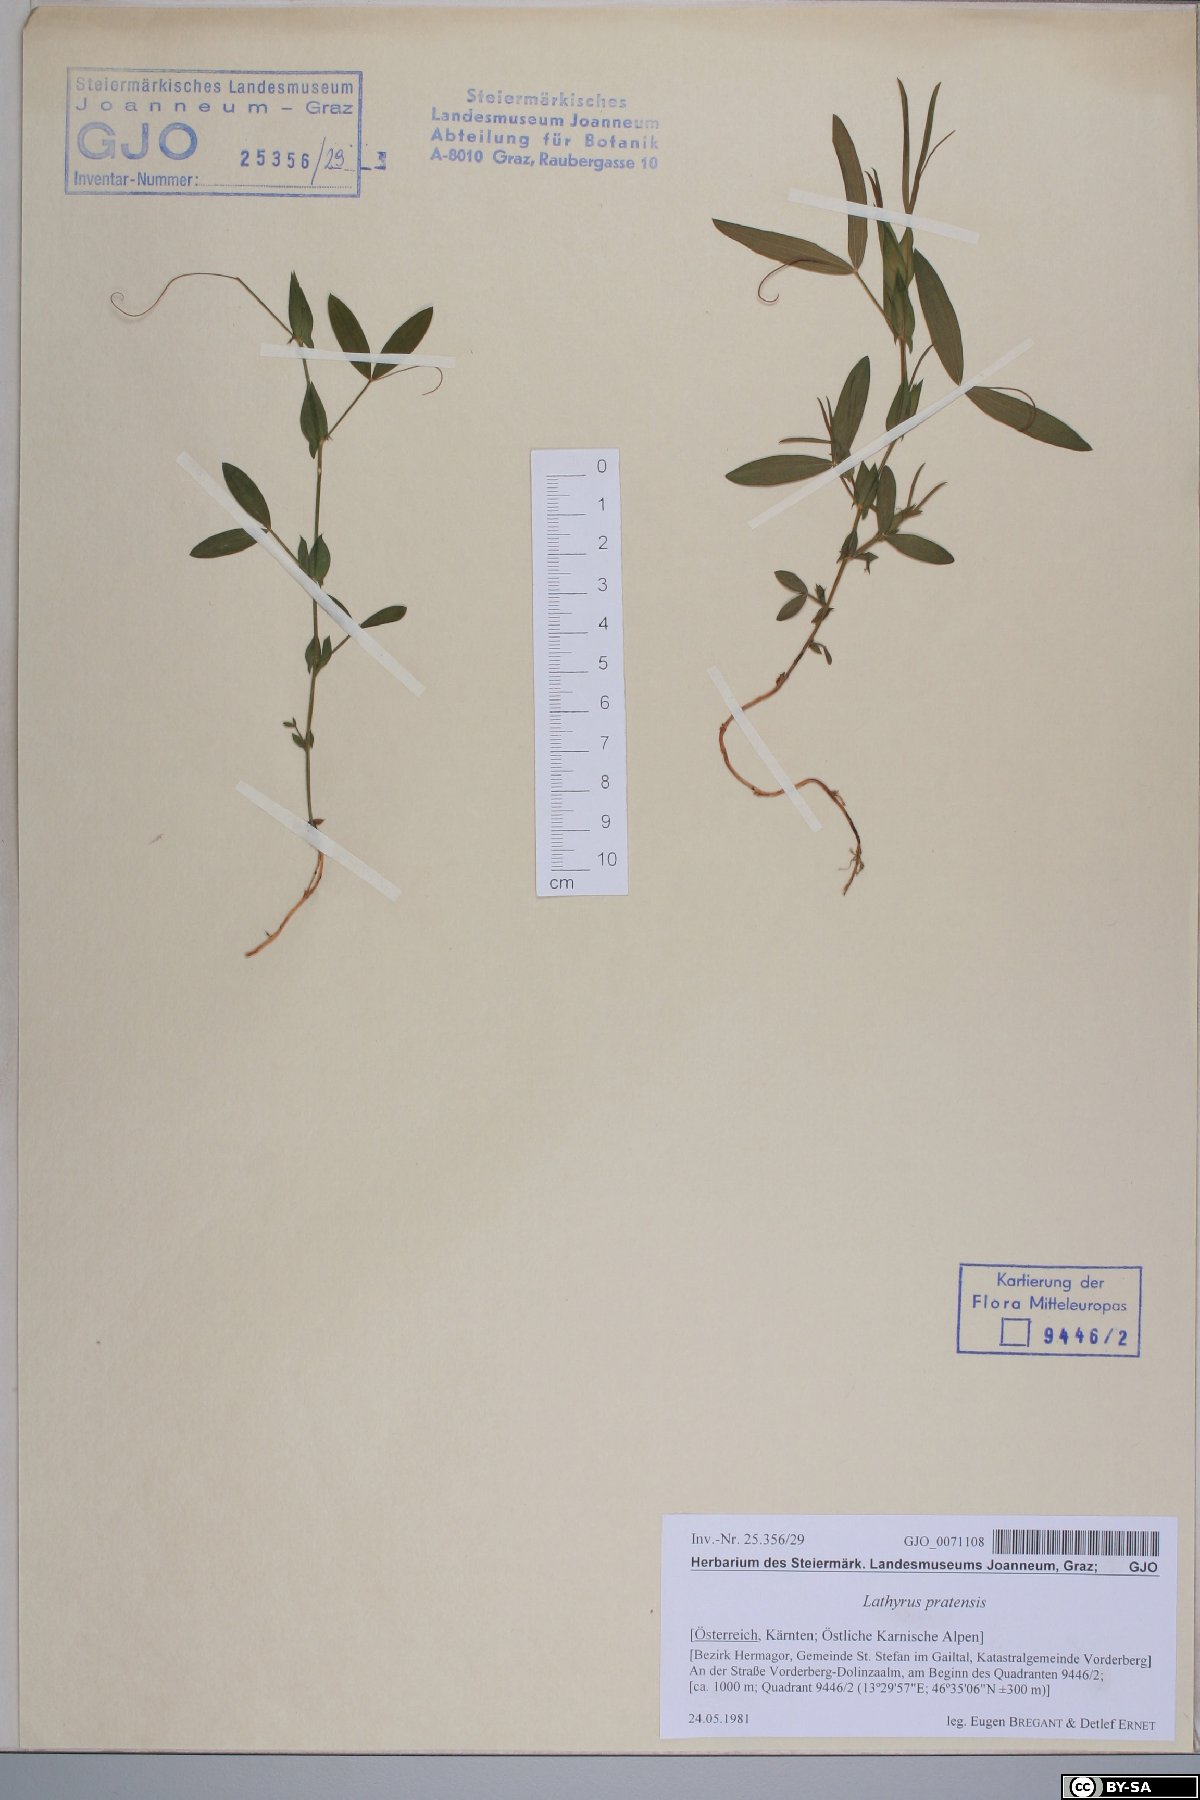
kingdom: Plantae
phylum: Tracheophyta
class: Magnoliopsida
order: Fabales
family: Fabaceae
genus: Lathyrus
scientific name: Lathyrus pratensis
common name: Meadow vetchling
